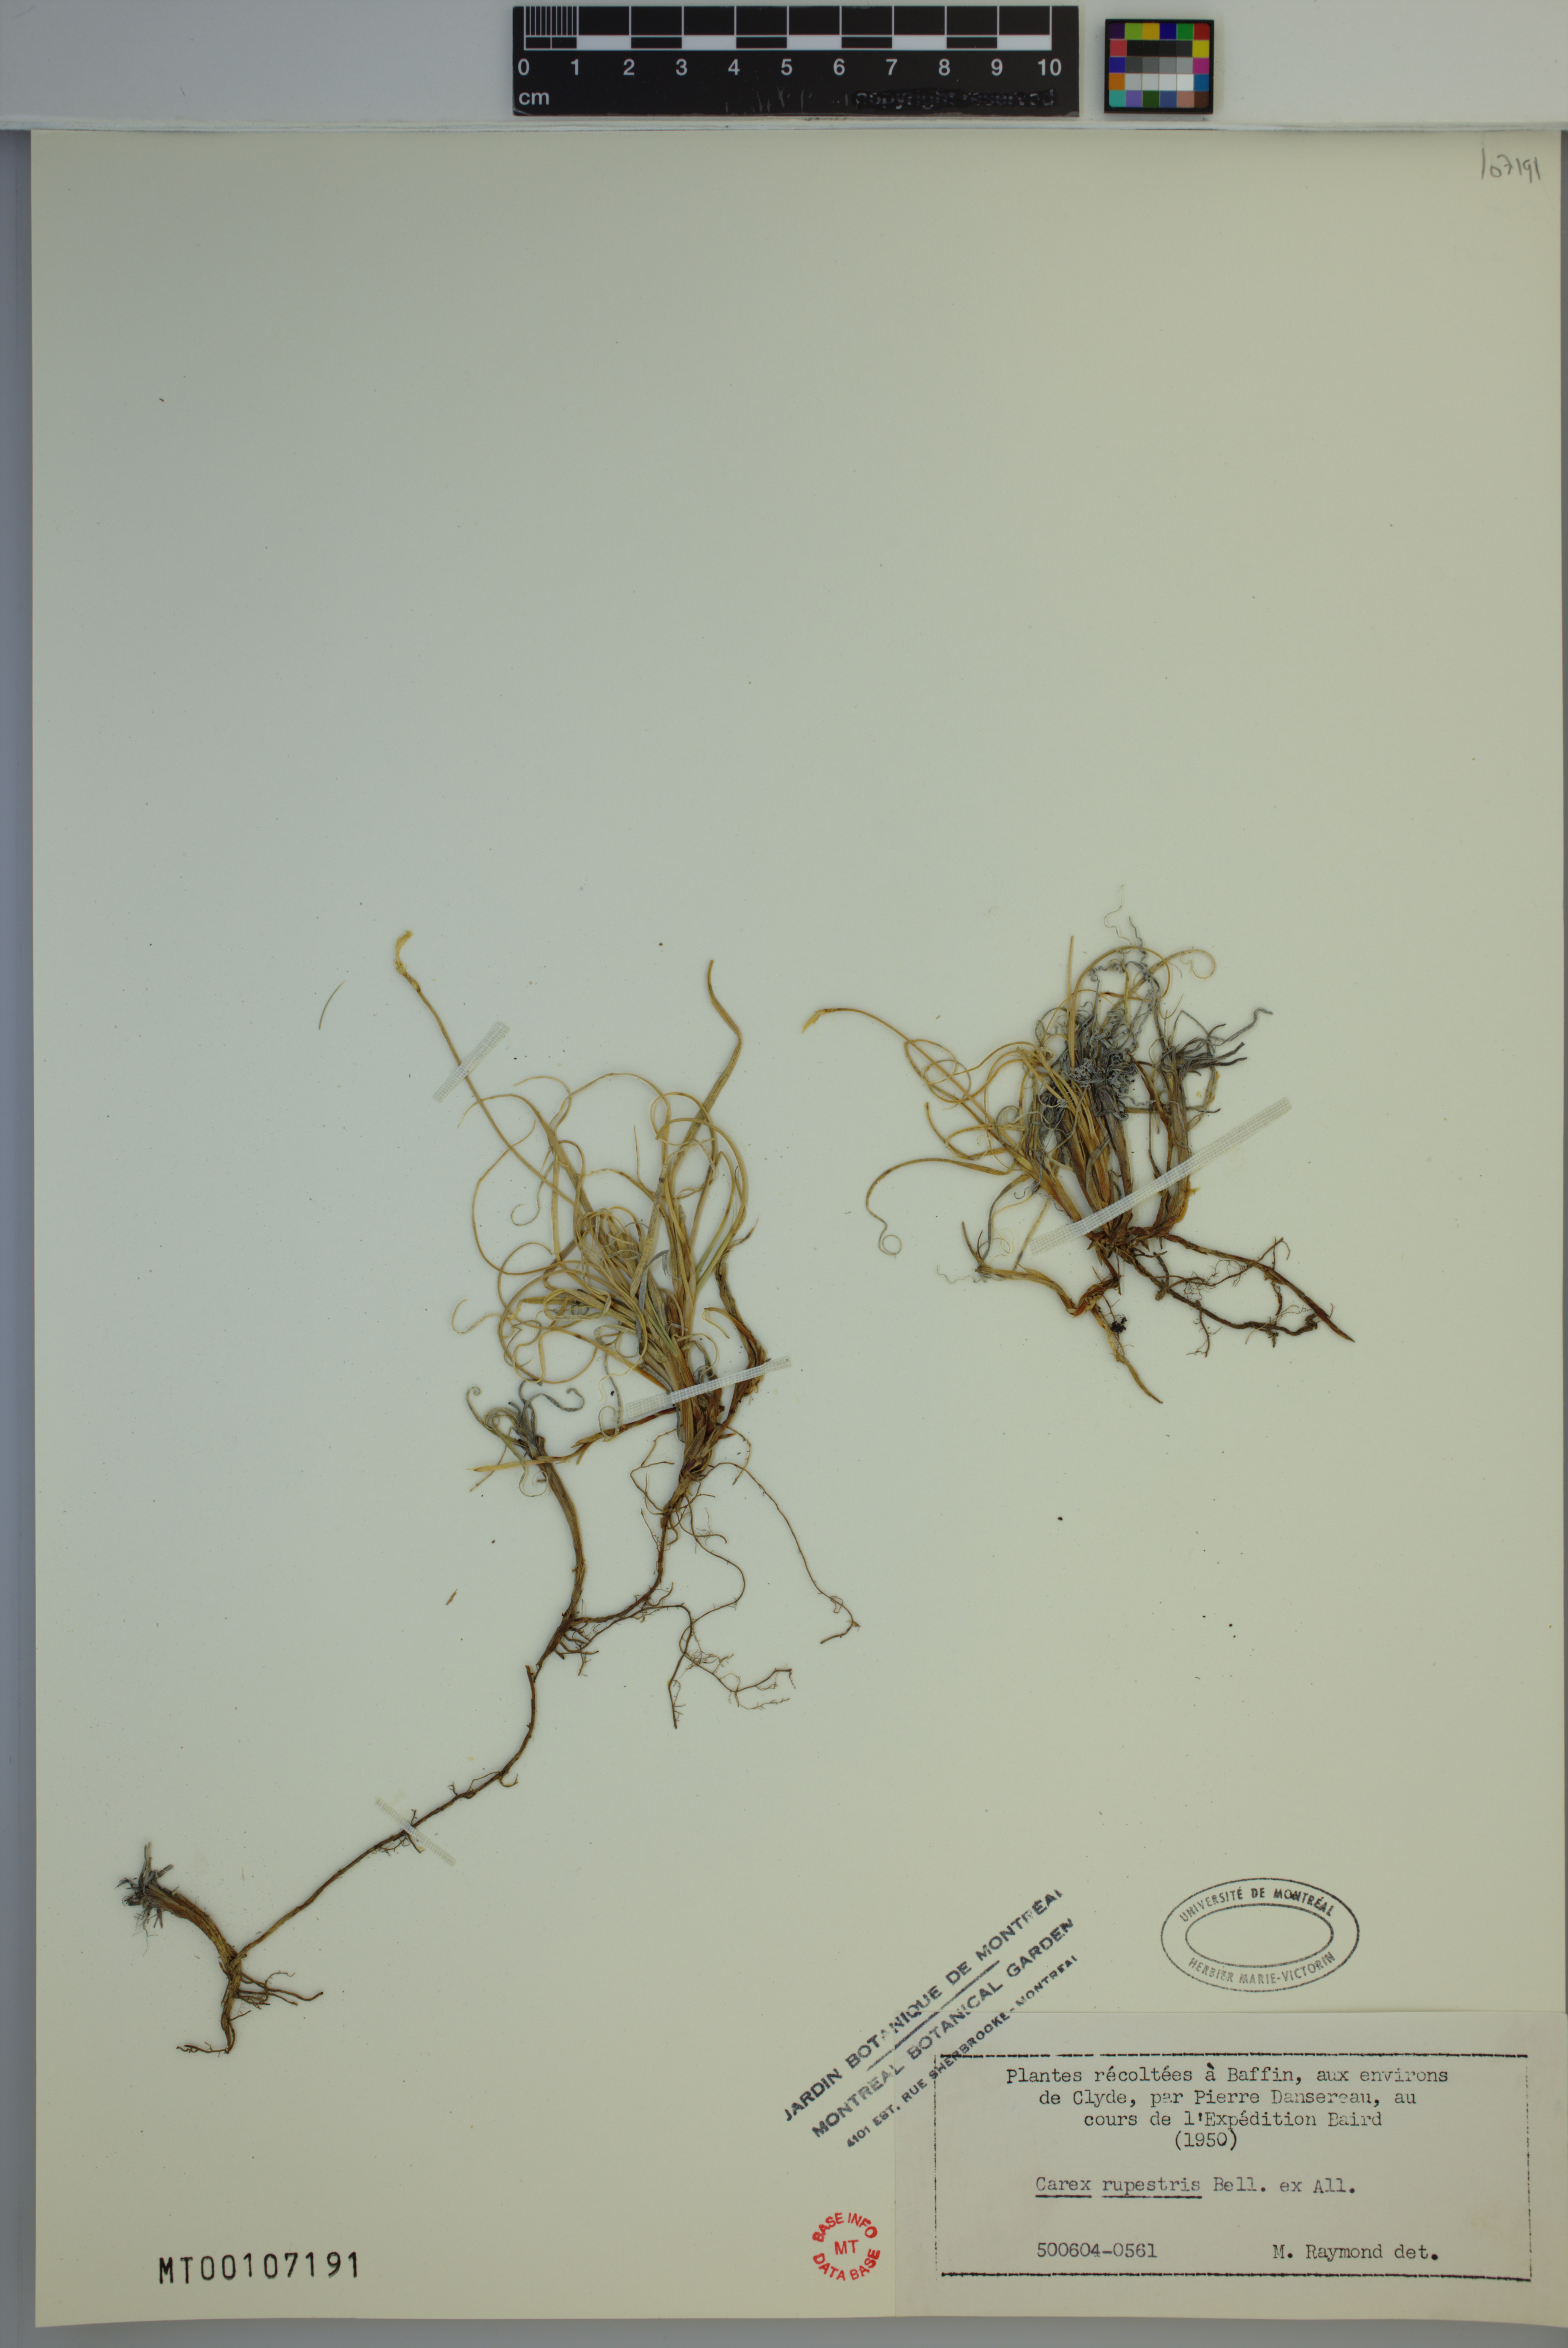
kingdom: Plantae
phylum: Tracheophyta
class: Liliopsida
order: Poales
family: Cyperaceae
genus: Carex
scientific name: Carex rupestris
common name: Rock sedge
